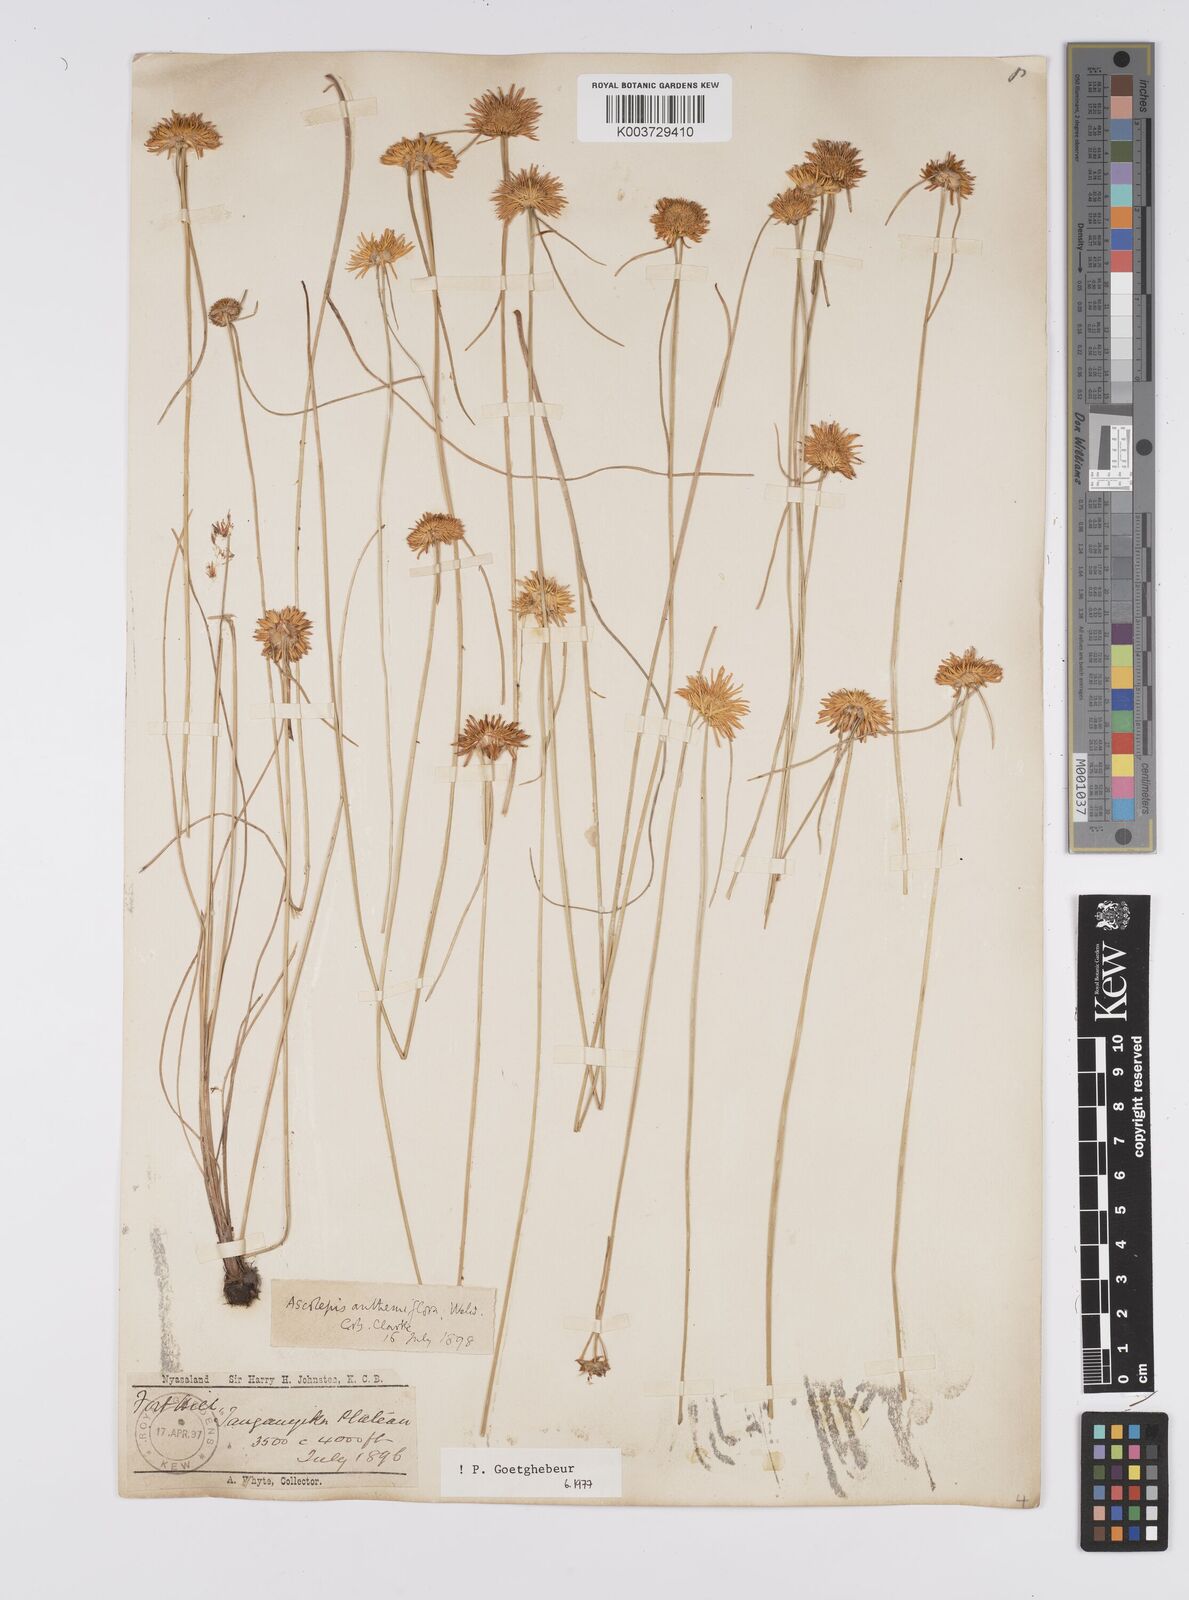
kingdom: Plantae
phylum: Tracheophyta
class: Liliopsida
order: Poales
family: Cyperaceae
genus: Cyperus
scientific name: Cyperus
